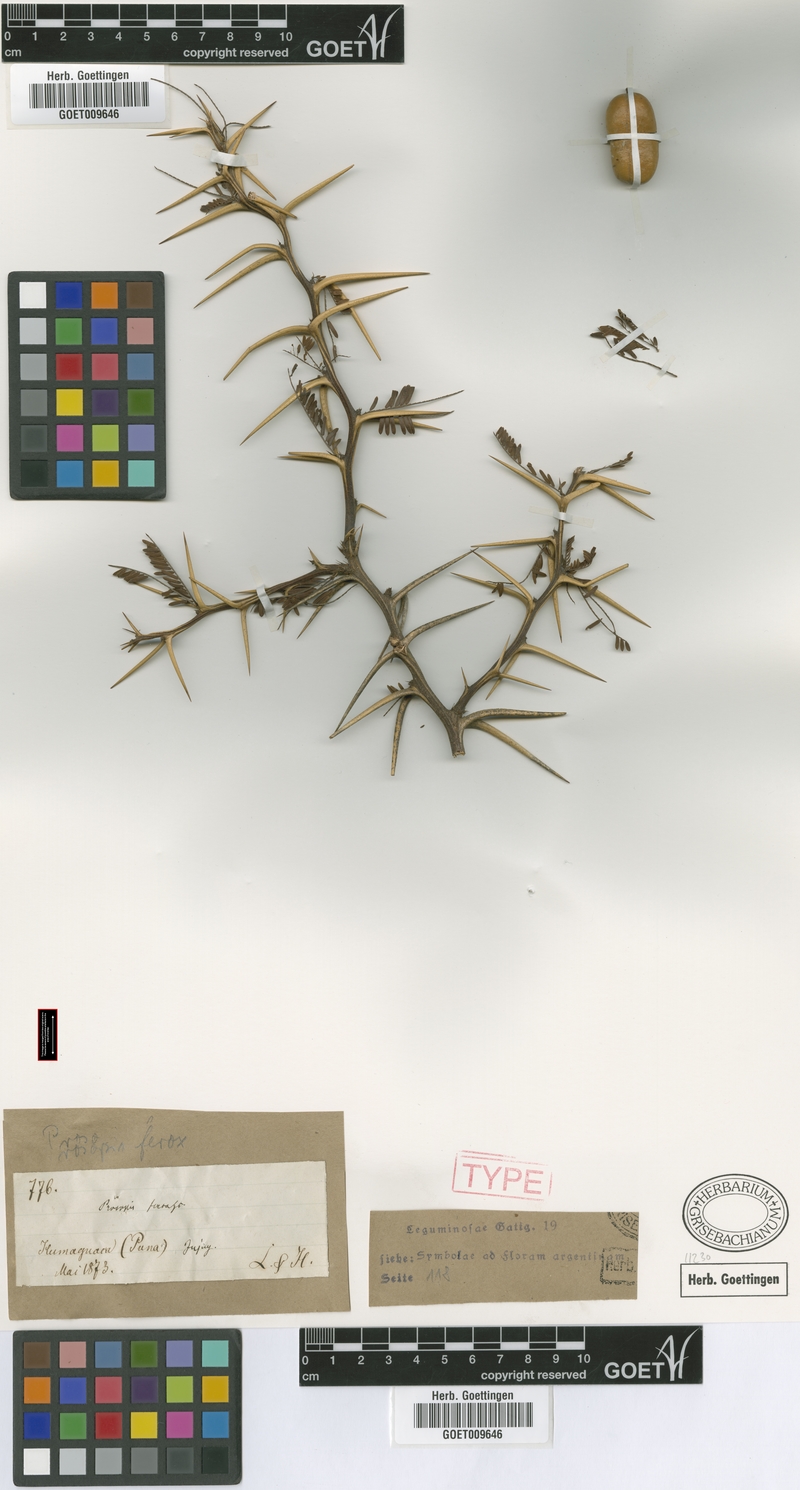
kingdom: Plantae
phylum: Tracheophyta
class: Magnoliopsida
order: Fabales
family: Fabaceae
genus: Prosopis
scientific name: Prosopis ferox
